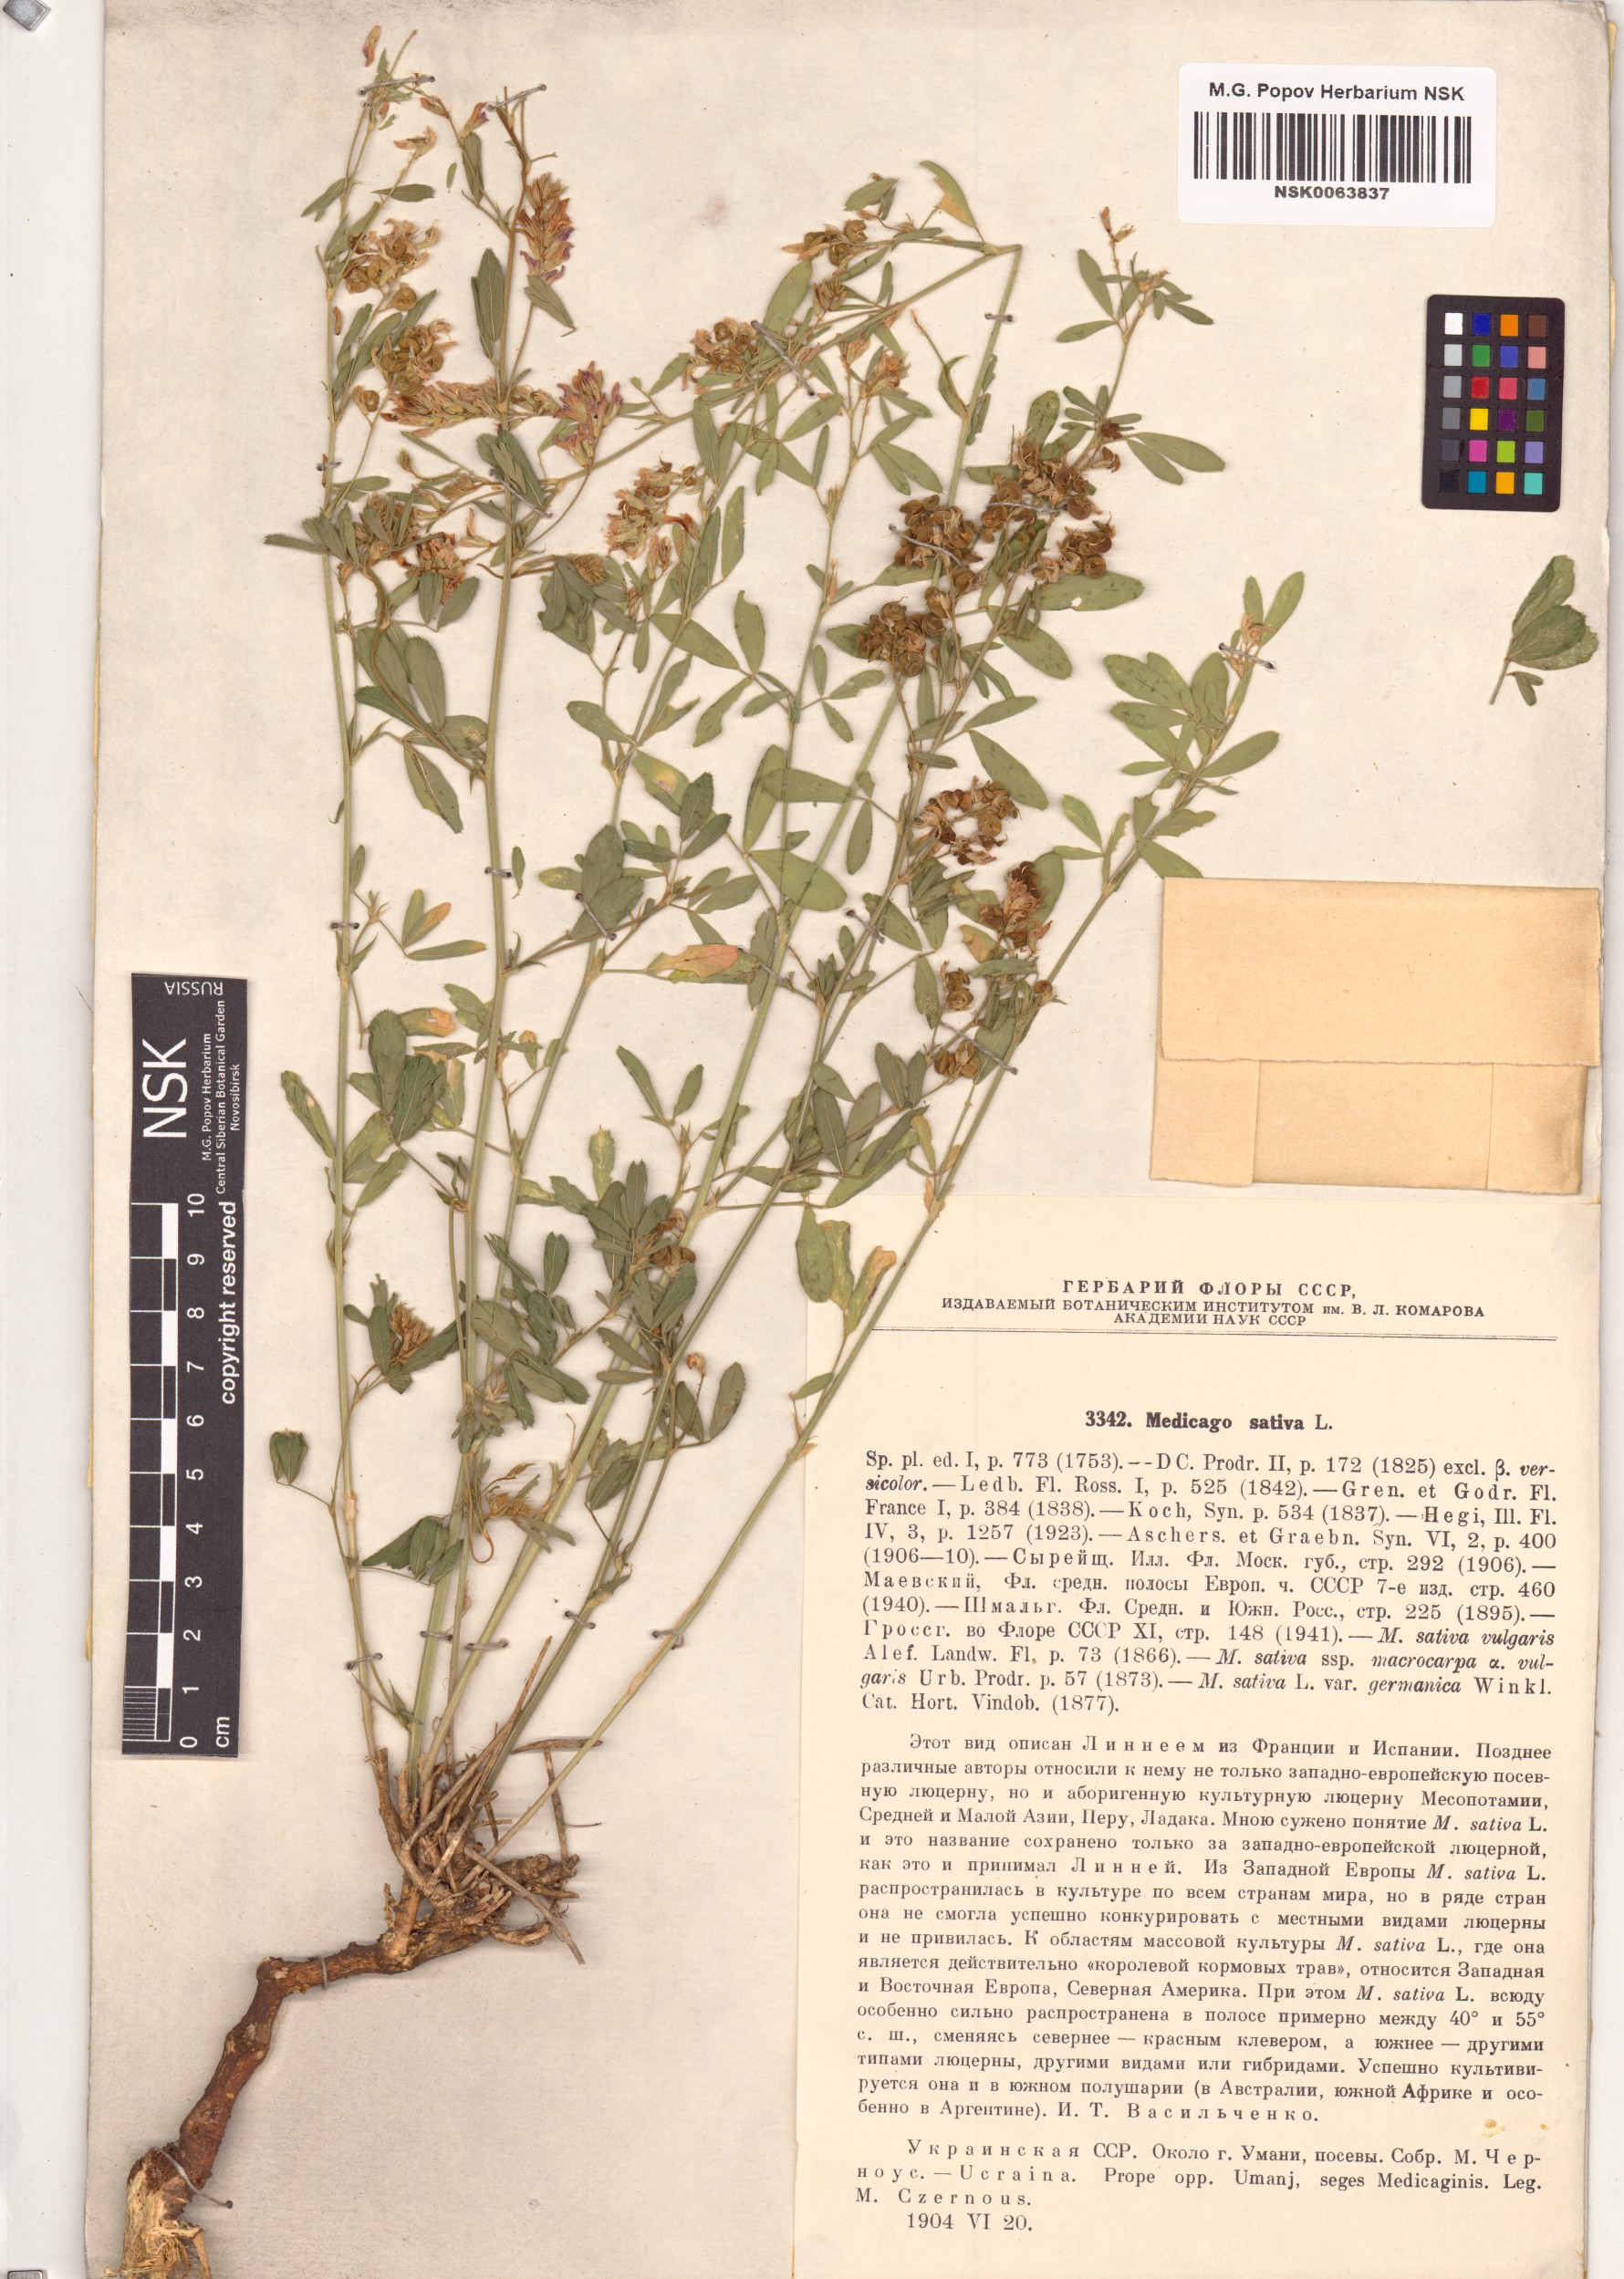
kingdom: Plantae
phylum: Tracheophyta
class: Magnoliopsida
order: Fabales
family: Fabaceae
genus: Medicago
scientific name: Medicago sativa
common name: Alfalfa
